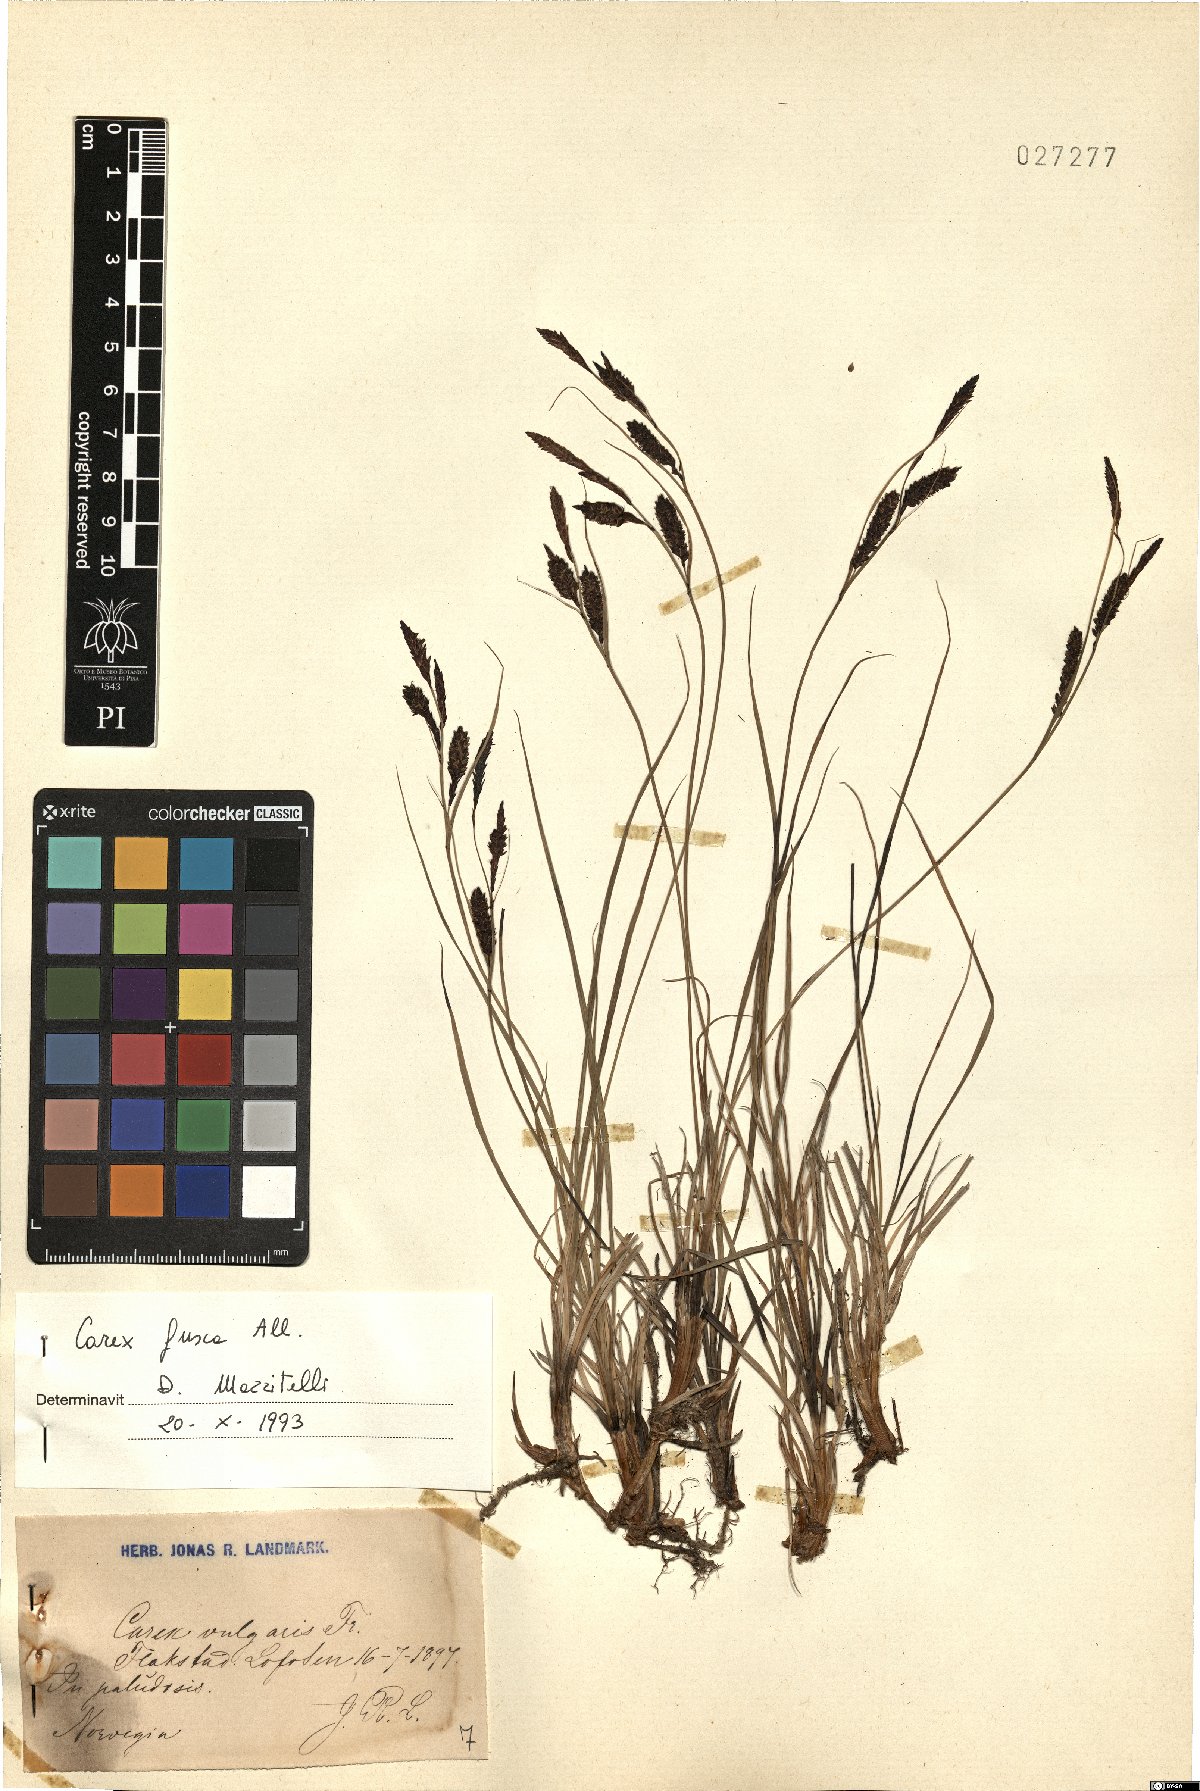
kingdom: Plantae
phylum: Tracheophyta
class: Liliopsida
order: Poales
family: Cyperaceae
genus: Carex
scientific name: Carex nigra
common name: Common sedge
